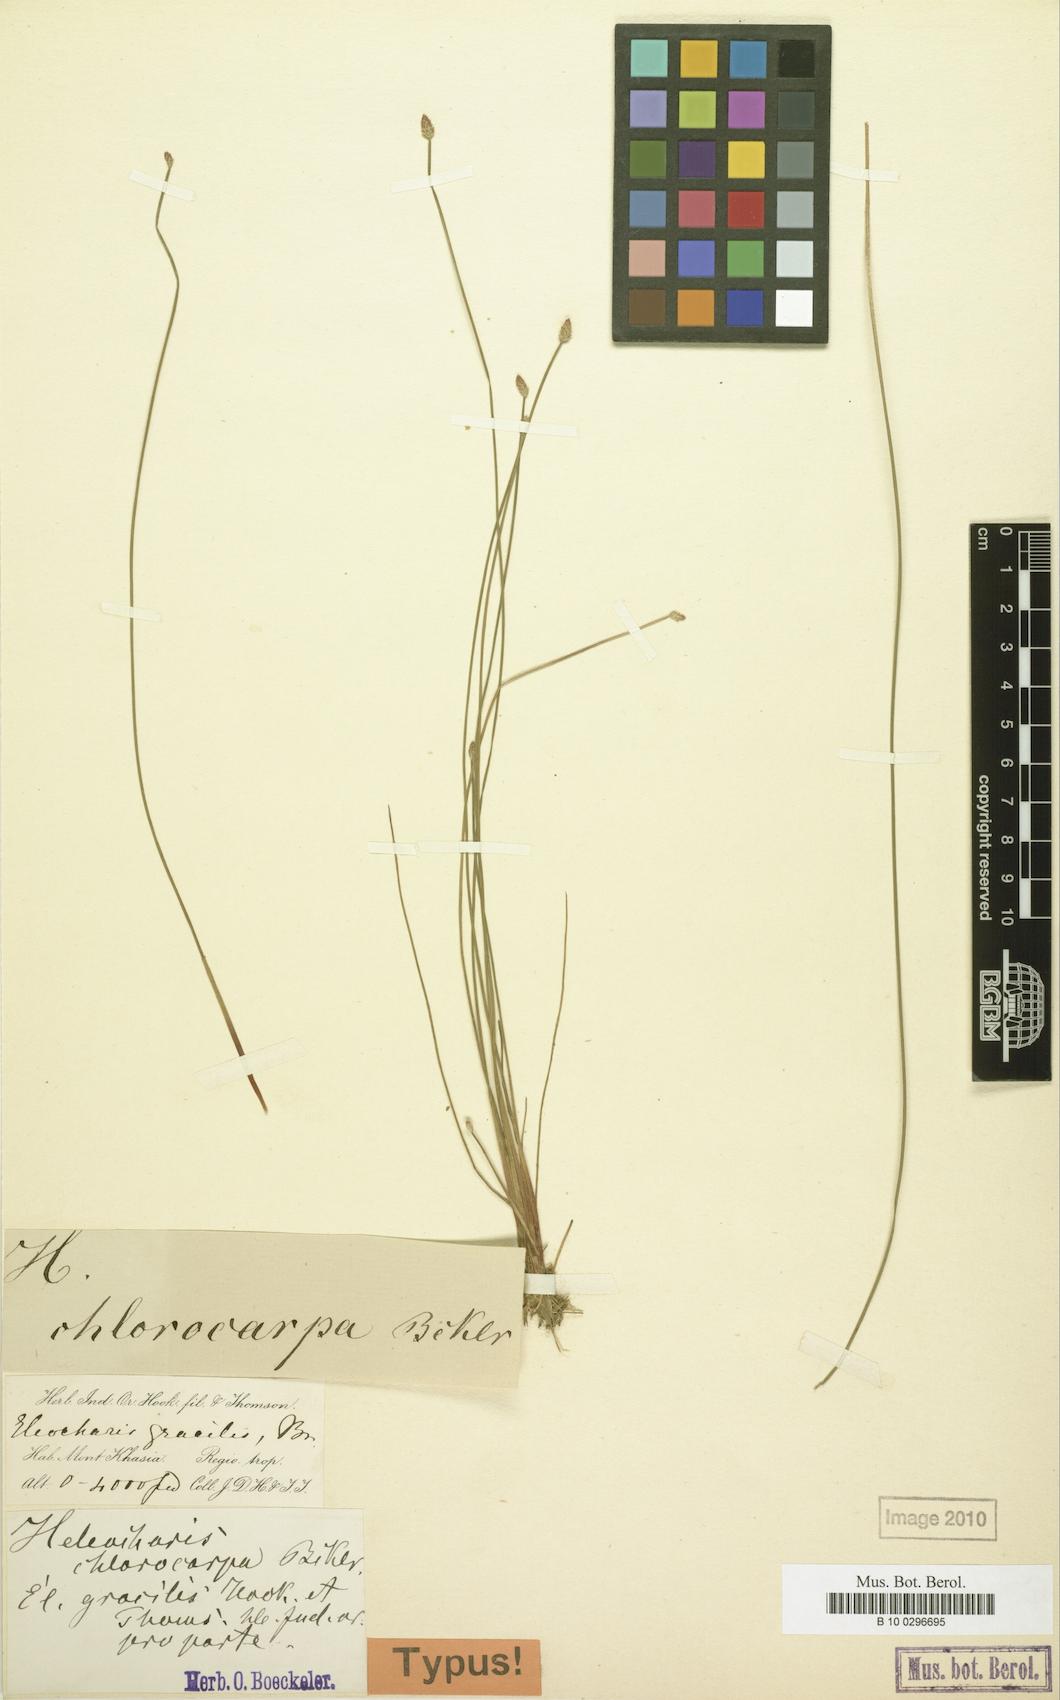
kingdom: Plantae
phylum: Tracheophyta
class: Liliopsida
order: Poales
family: Cyperaceae
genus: Eleocharis
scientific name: Eleocharis pellucida
